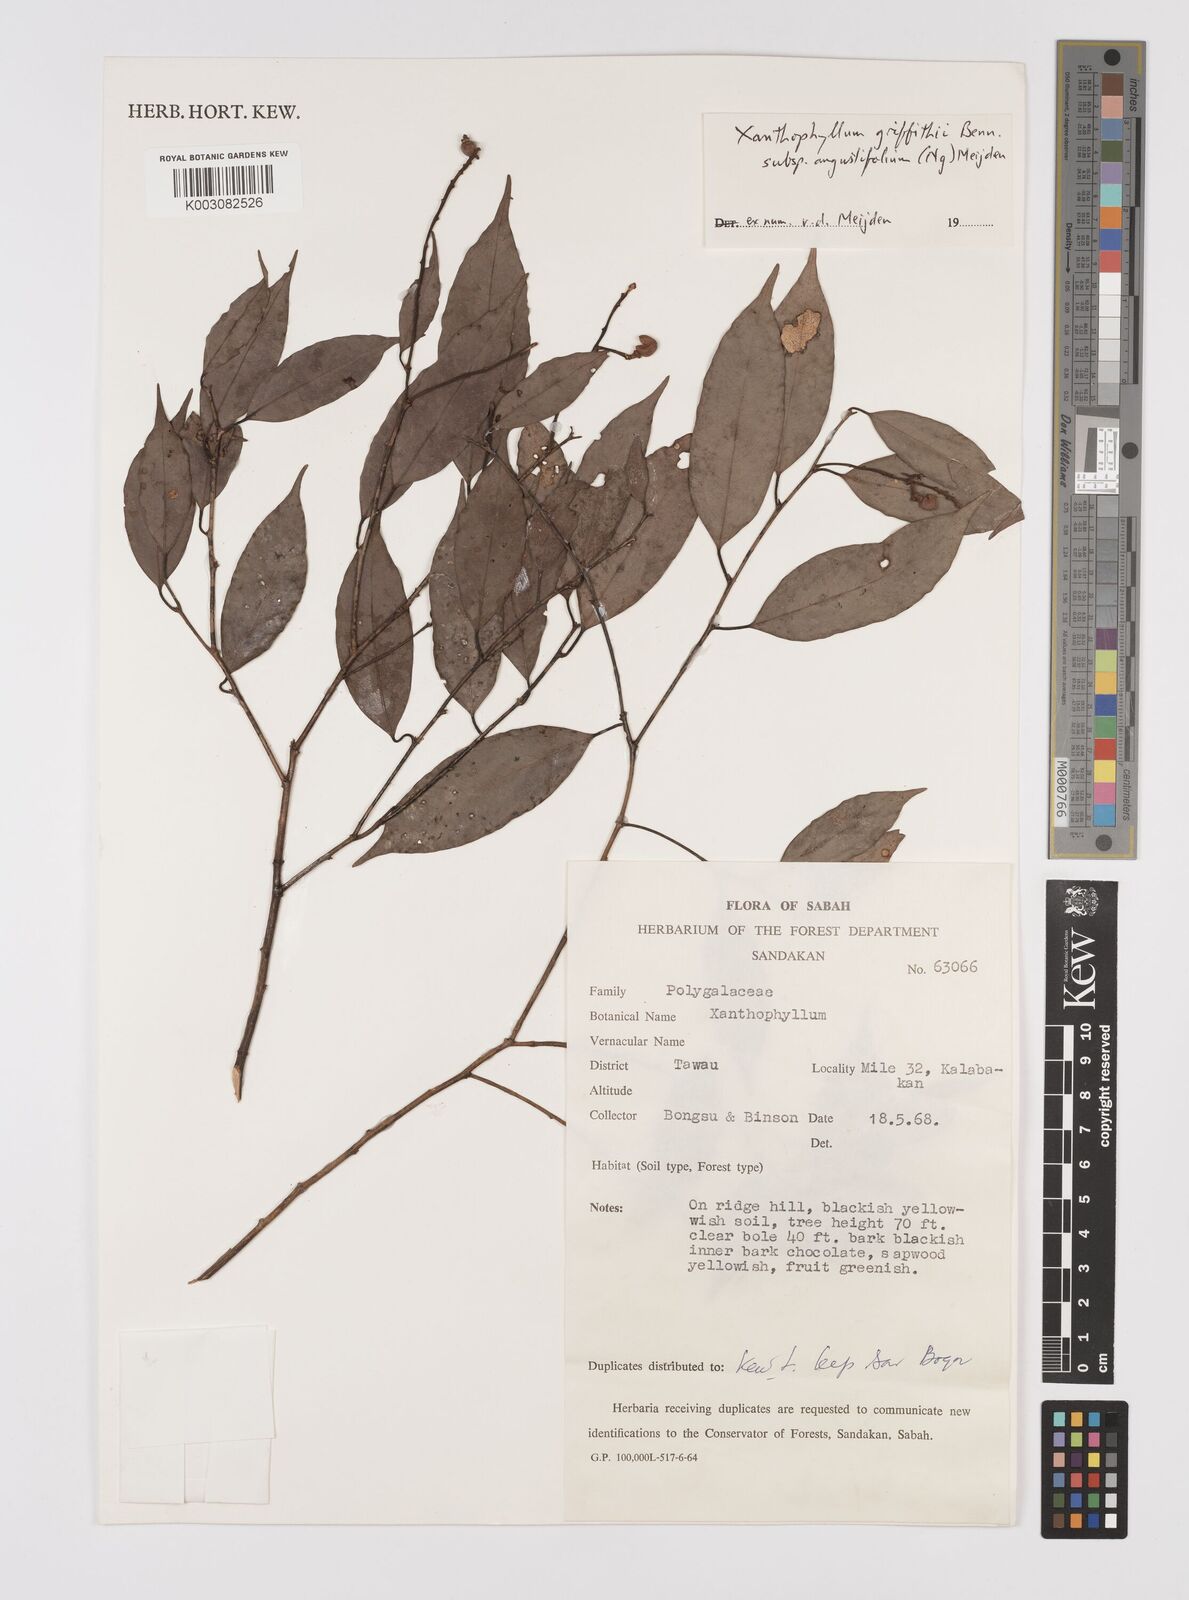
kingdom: Plantae
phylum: Tracheophyta
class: Magnoliopsida
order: Fabales
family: Polygalaceae
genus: Xanthophyllum
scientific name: Xanthophyllum griffithii
